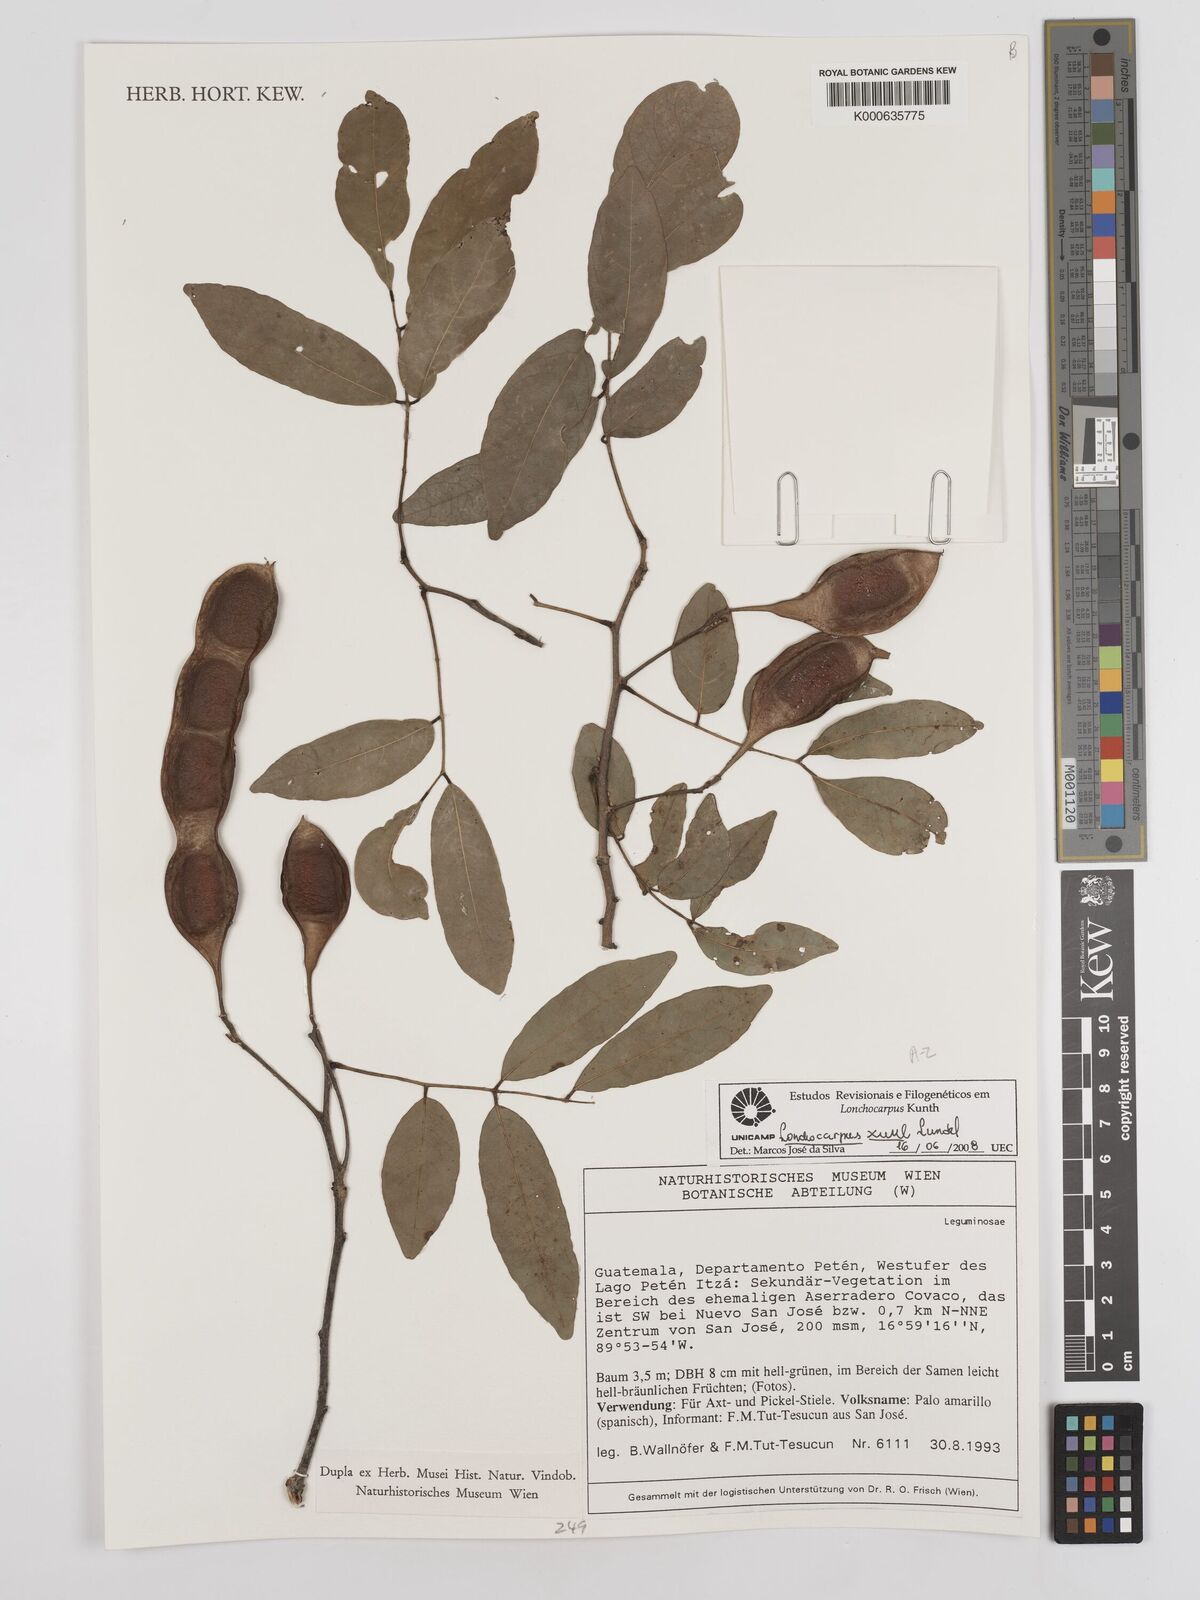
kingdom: Plantae
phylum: Tracheophyta
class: Magnoliopsida
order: Fabales
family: Fabaceae
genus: Lonchocarpus
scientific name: Lonchocarpus guatemalensis
